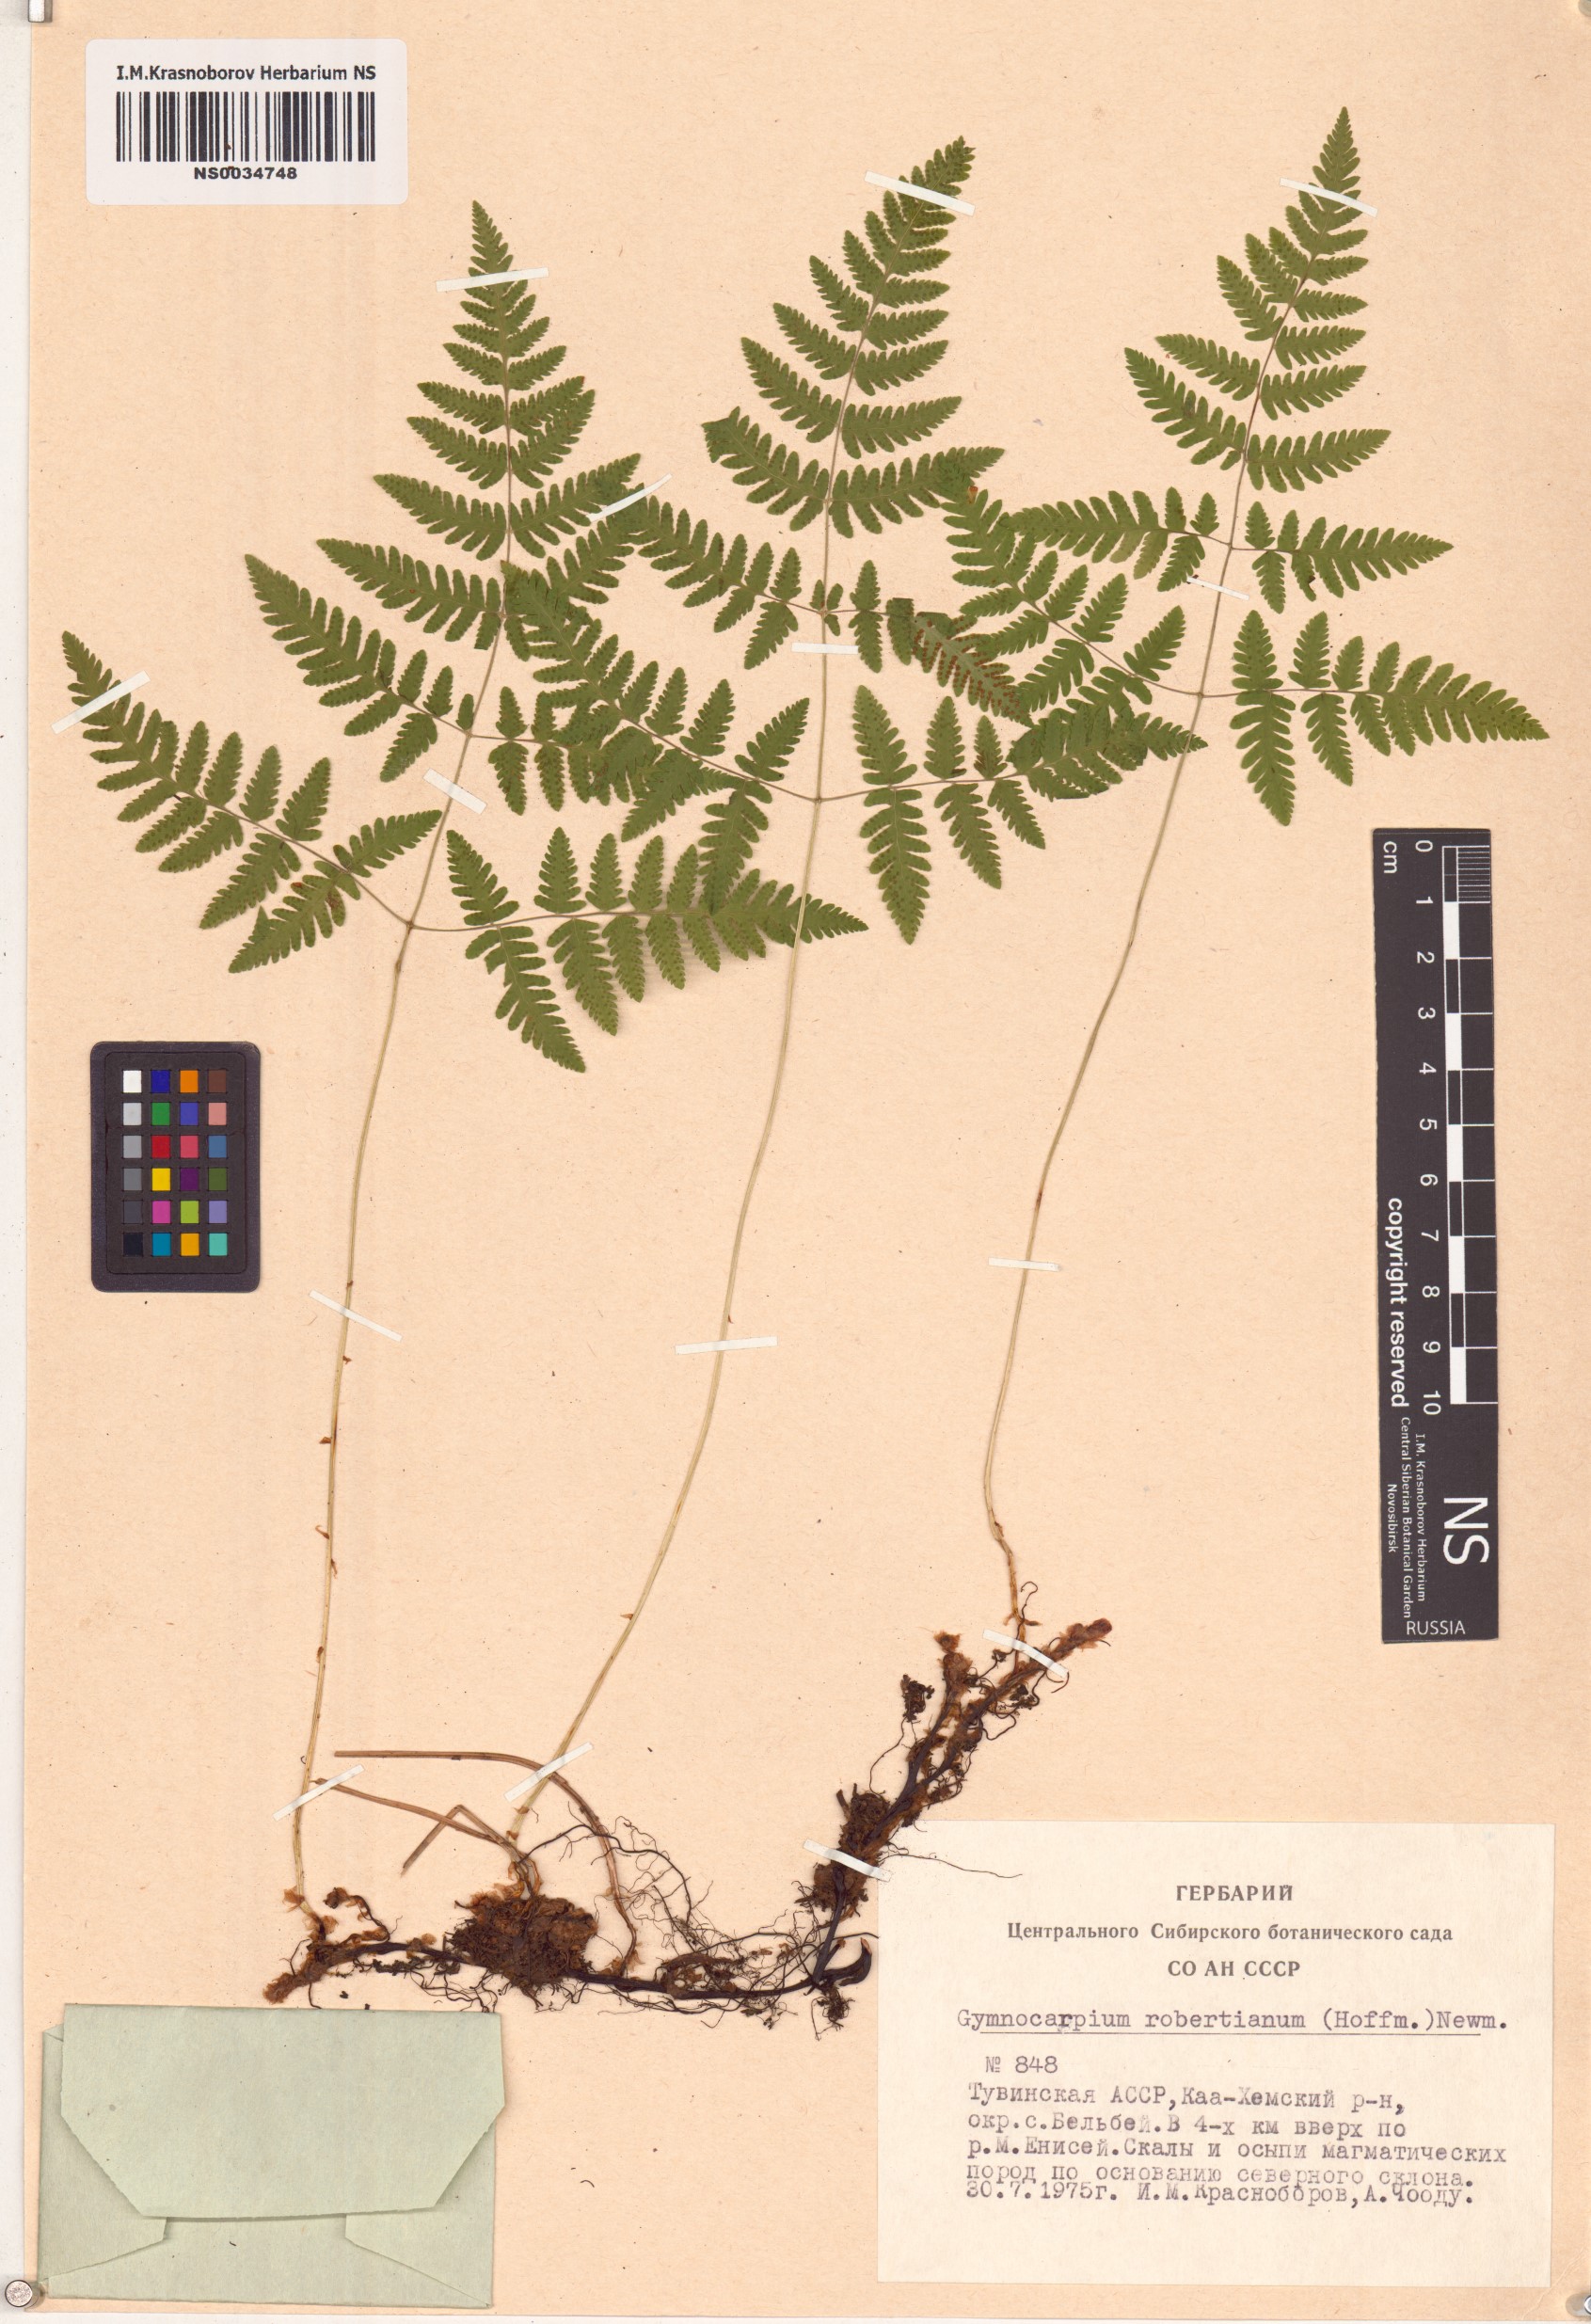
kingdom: Plantae
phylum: Tracheophyta
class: Polypodiopsida
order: Polypodiales
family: Cystopteridaceae
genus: Gymnocarpium
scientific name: Gymnocarpium robertianum
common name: Limestone fern
